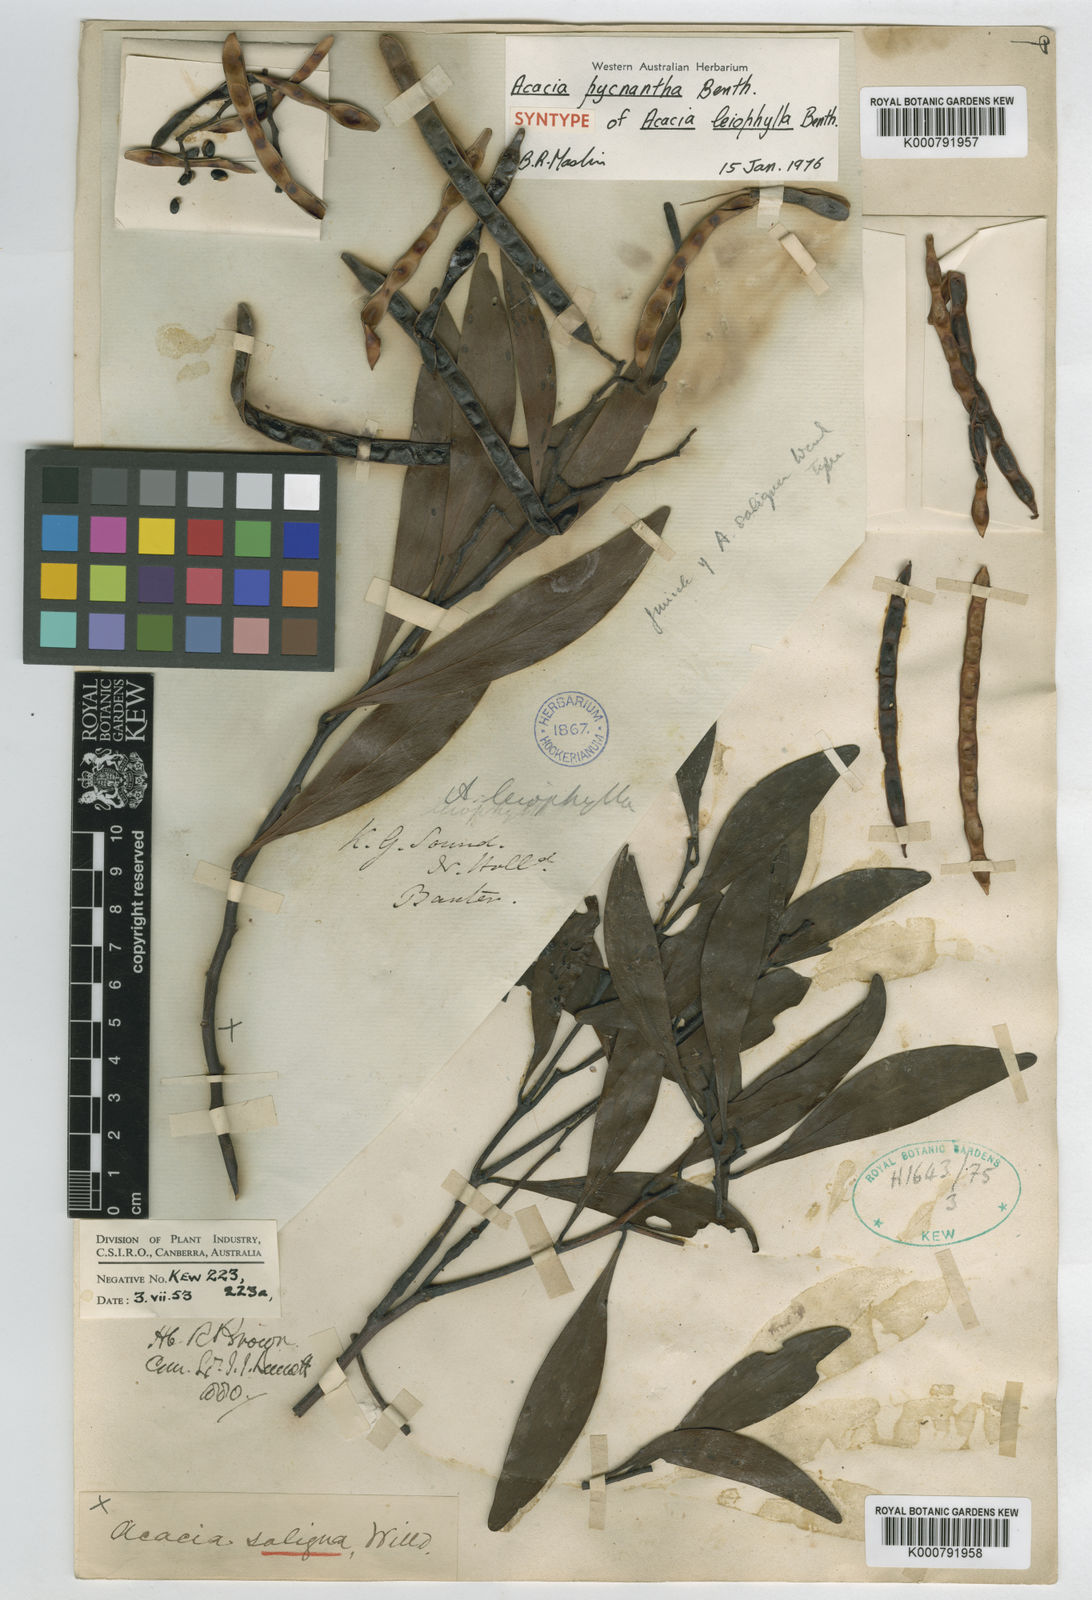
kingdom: Plantae
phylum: Tracheophyta
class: Magnoliopsida
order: Fabales
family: Fabaceae
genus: Acacia
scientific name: Acacia pycnantha
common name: Golden wattle
